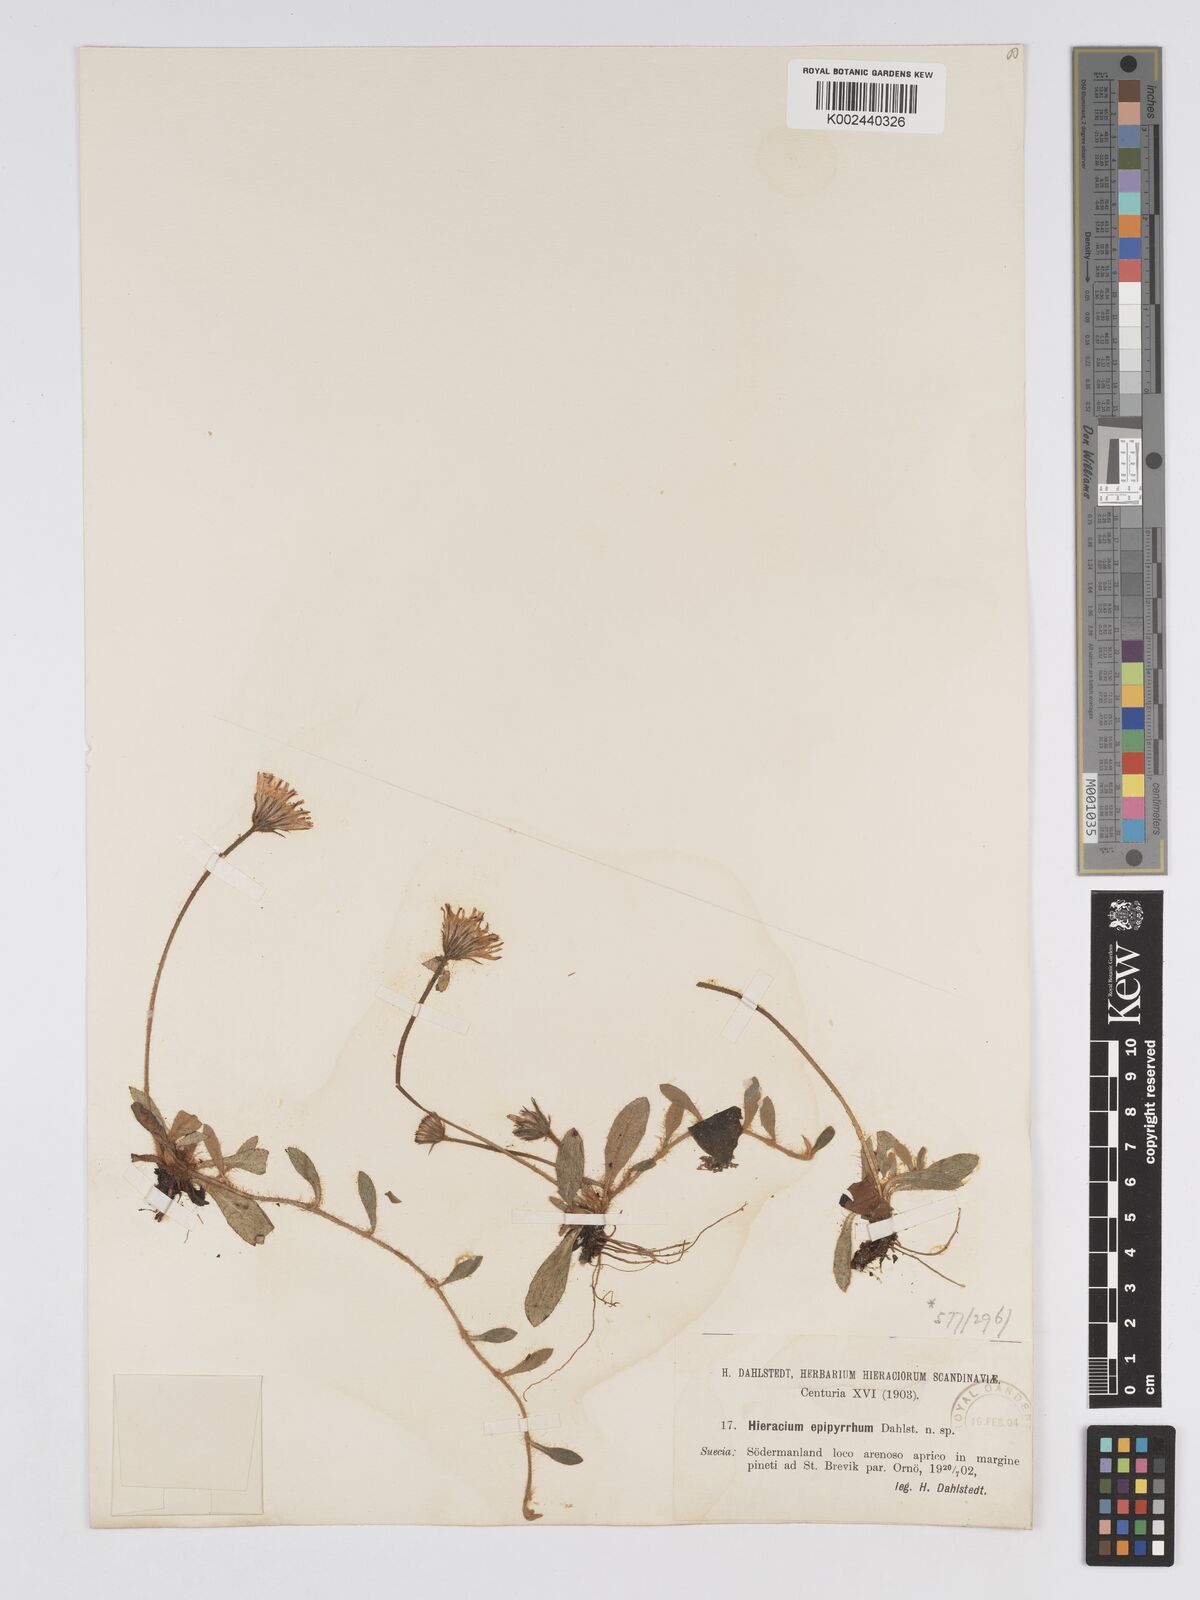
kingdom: Plantae
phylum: Tracheophyta
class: Magnoliopsida
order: Asterales
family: Asteraceae
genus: Pilosella
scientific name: Pilosella officinarum
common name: Mouse-ear hawkweed
